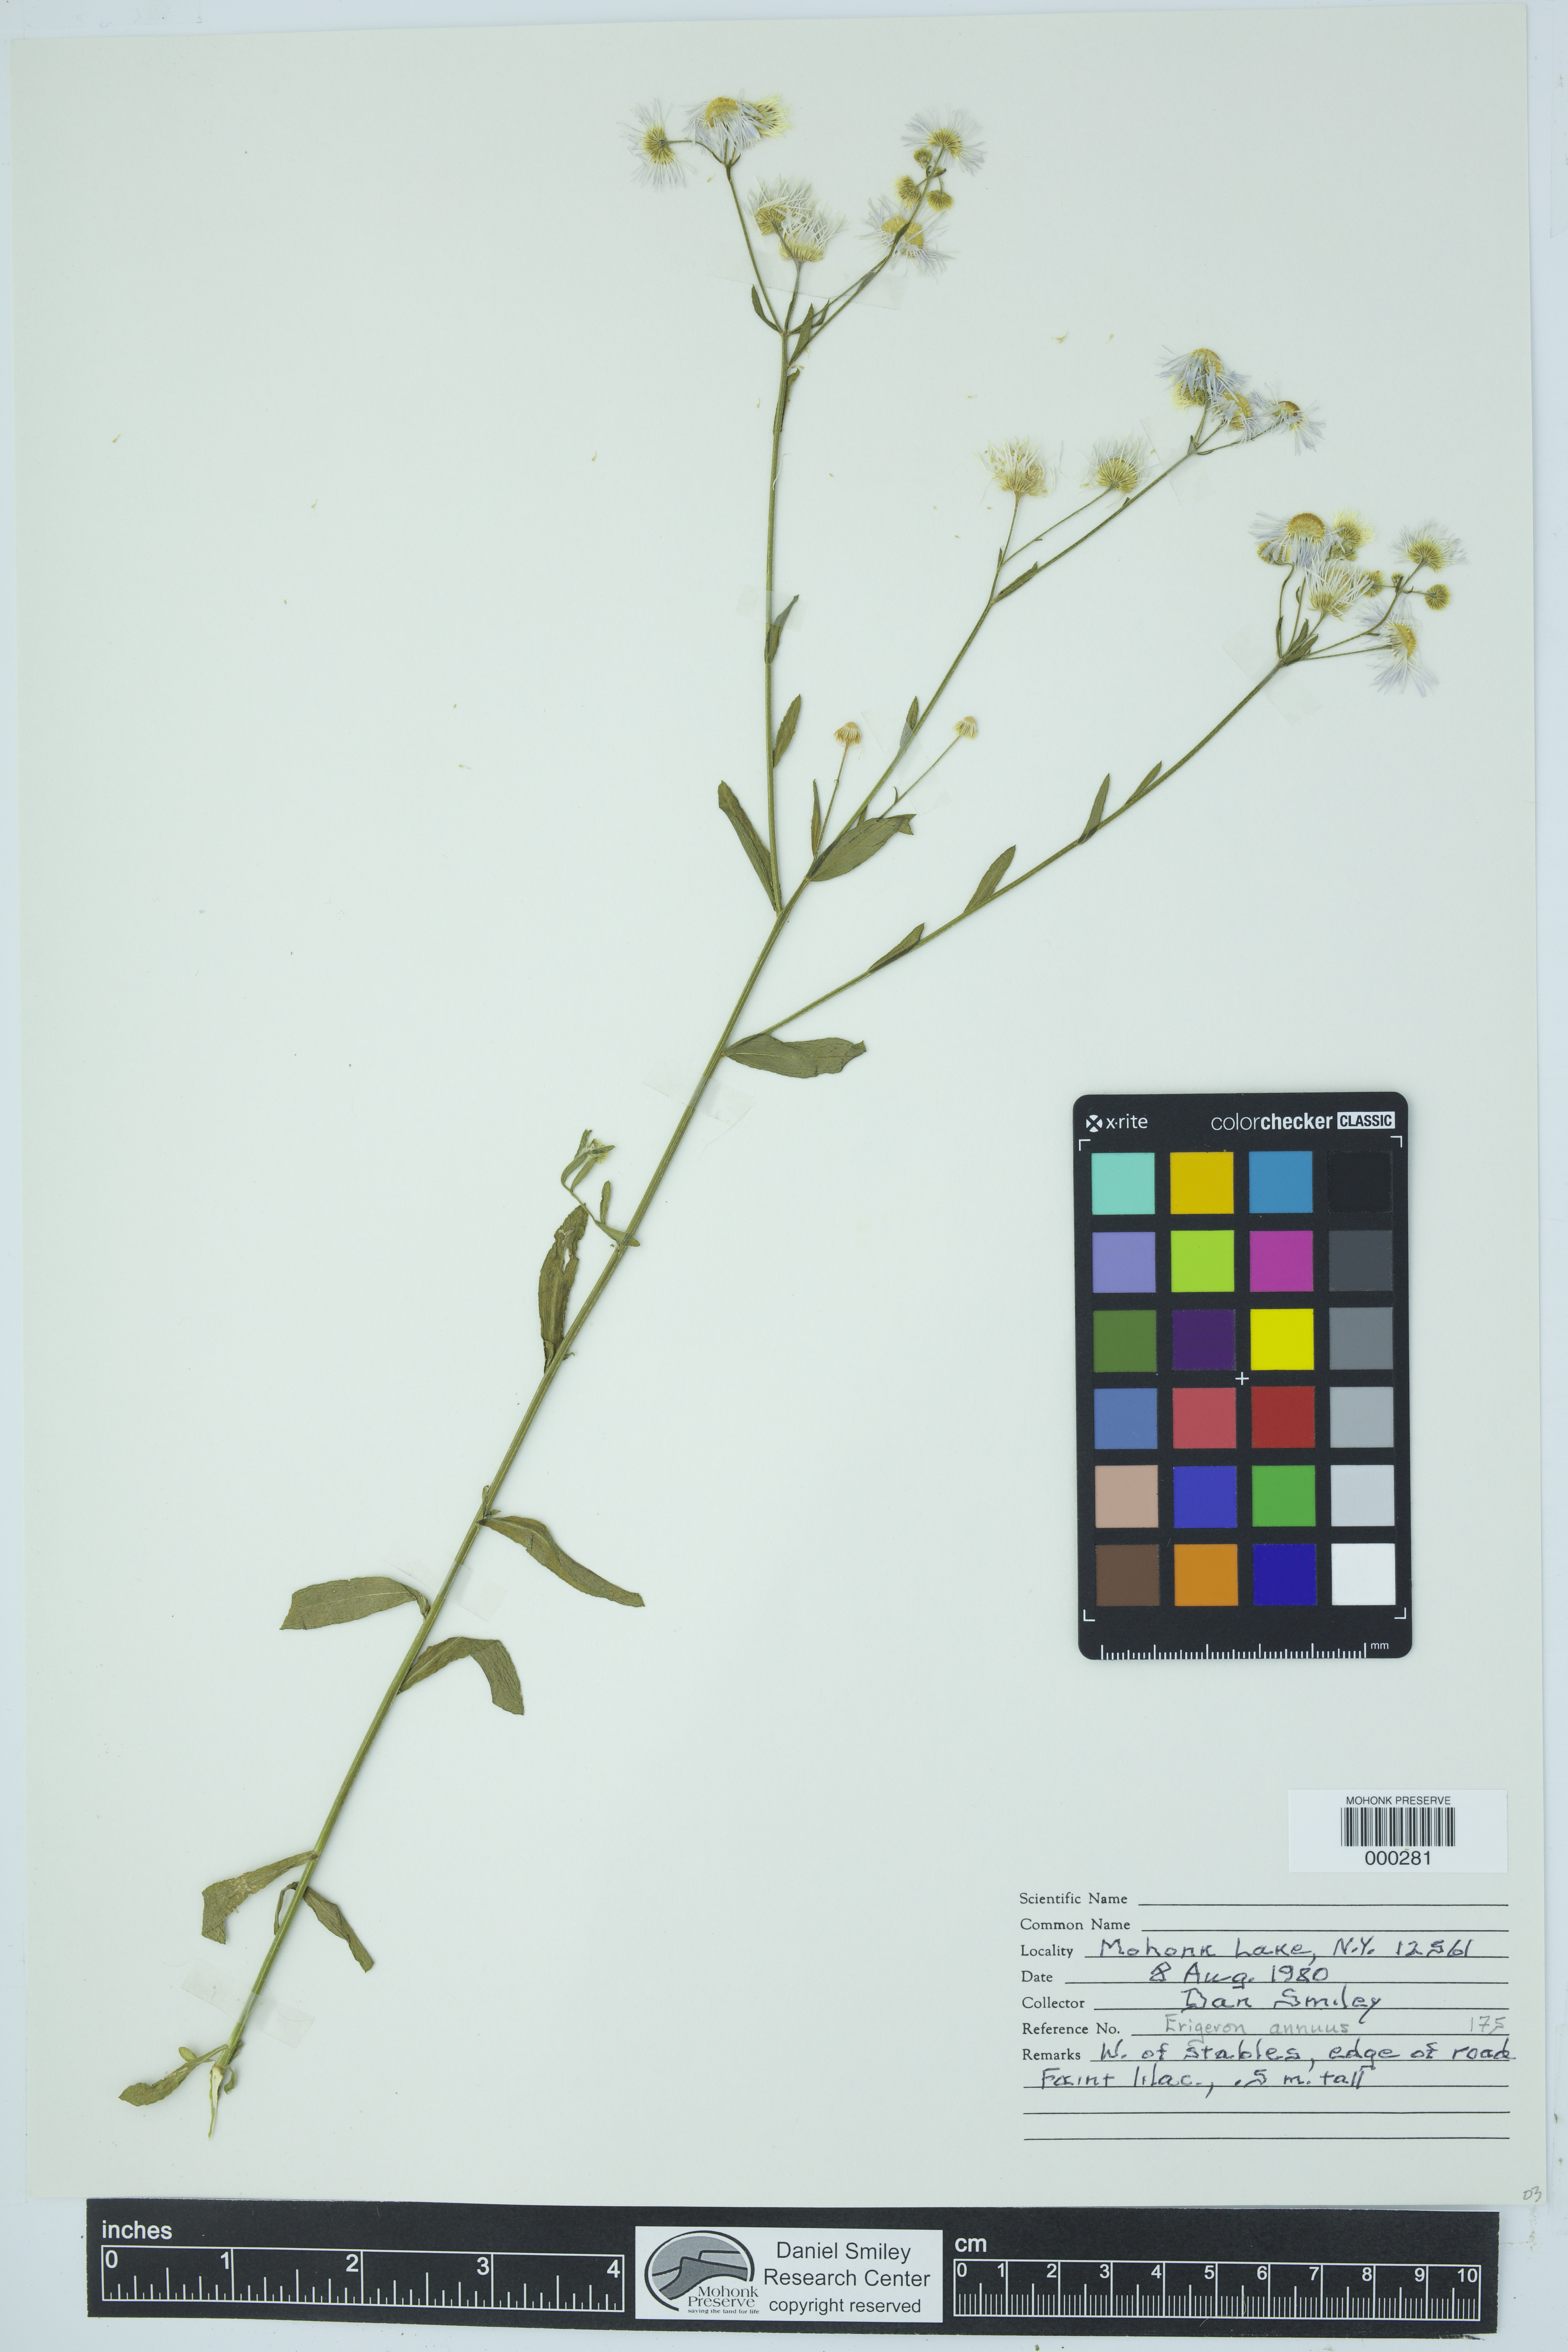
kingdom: Plantae
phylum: Tracheophyta
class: Magnoliopsida
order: Asterales
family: Asteraceae
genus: Erigeron
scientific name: Erigeron annuus
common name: Tall fleabane
